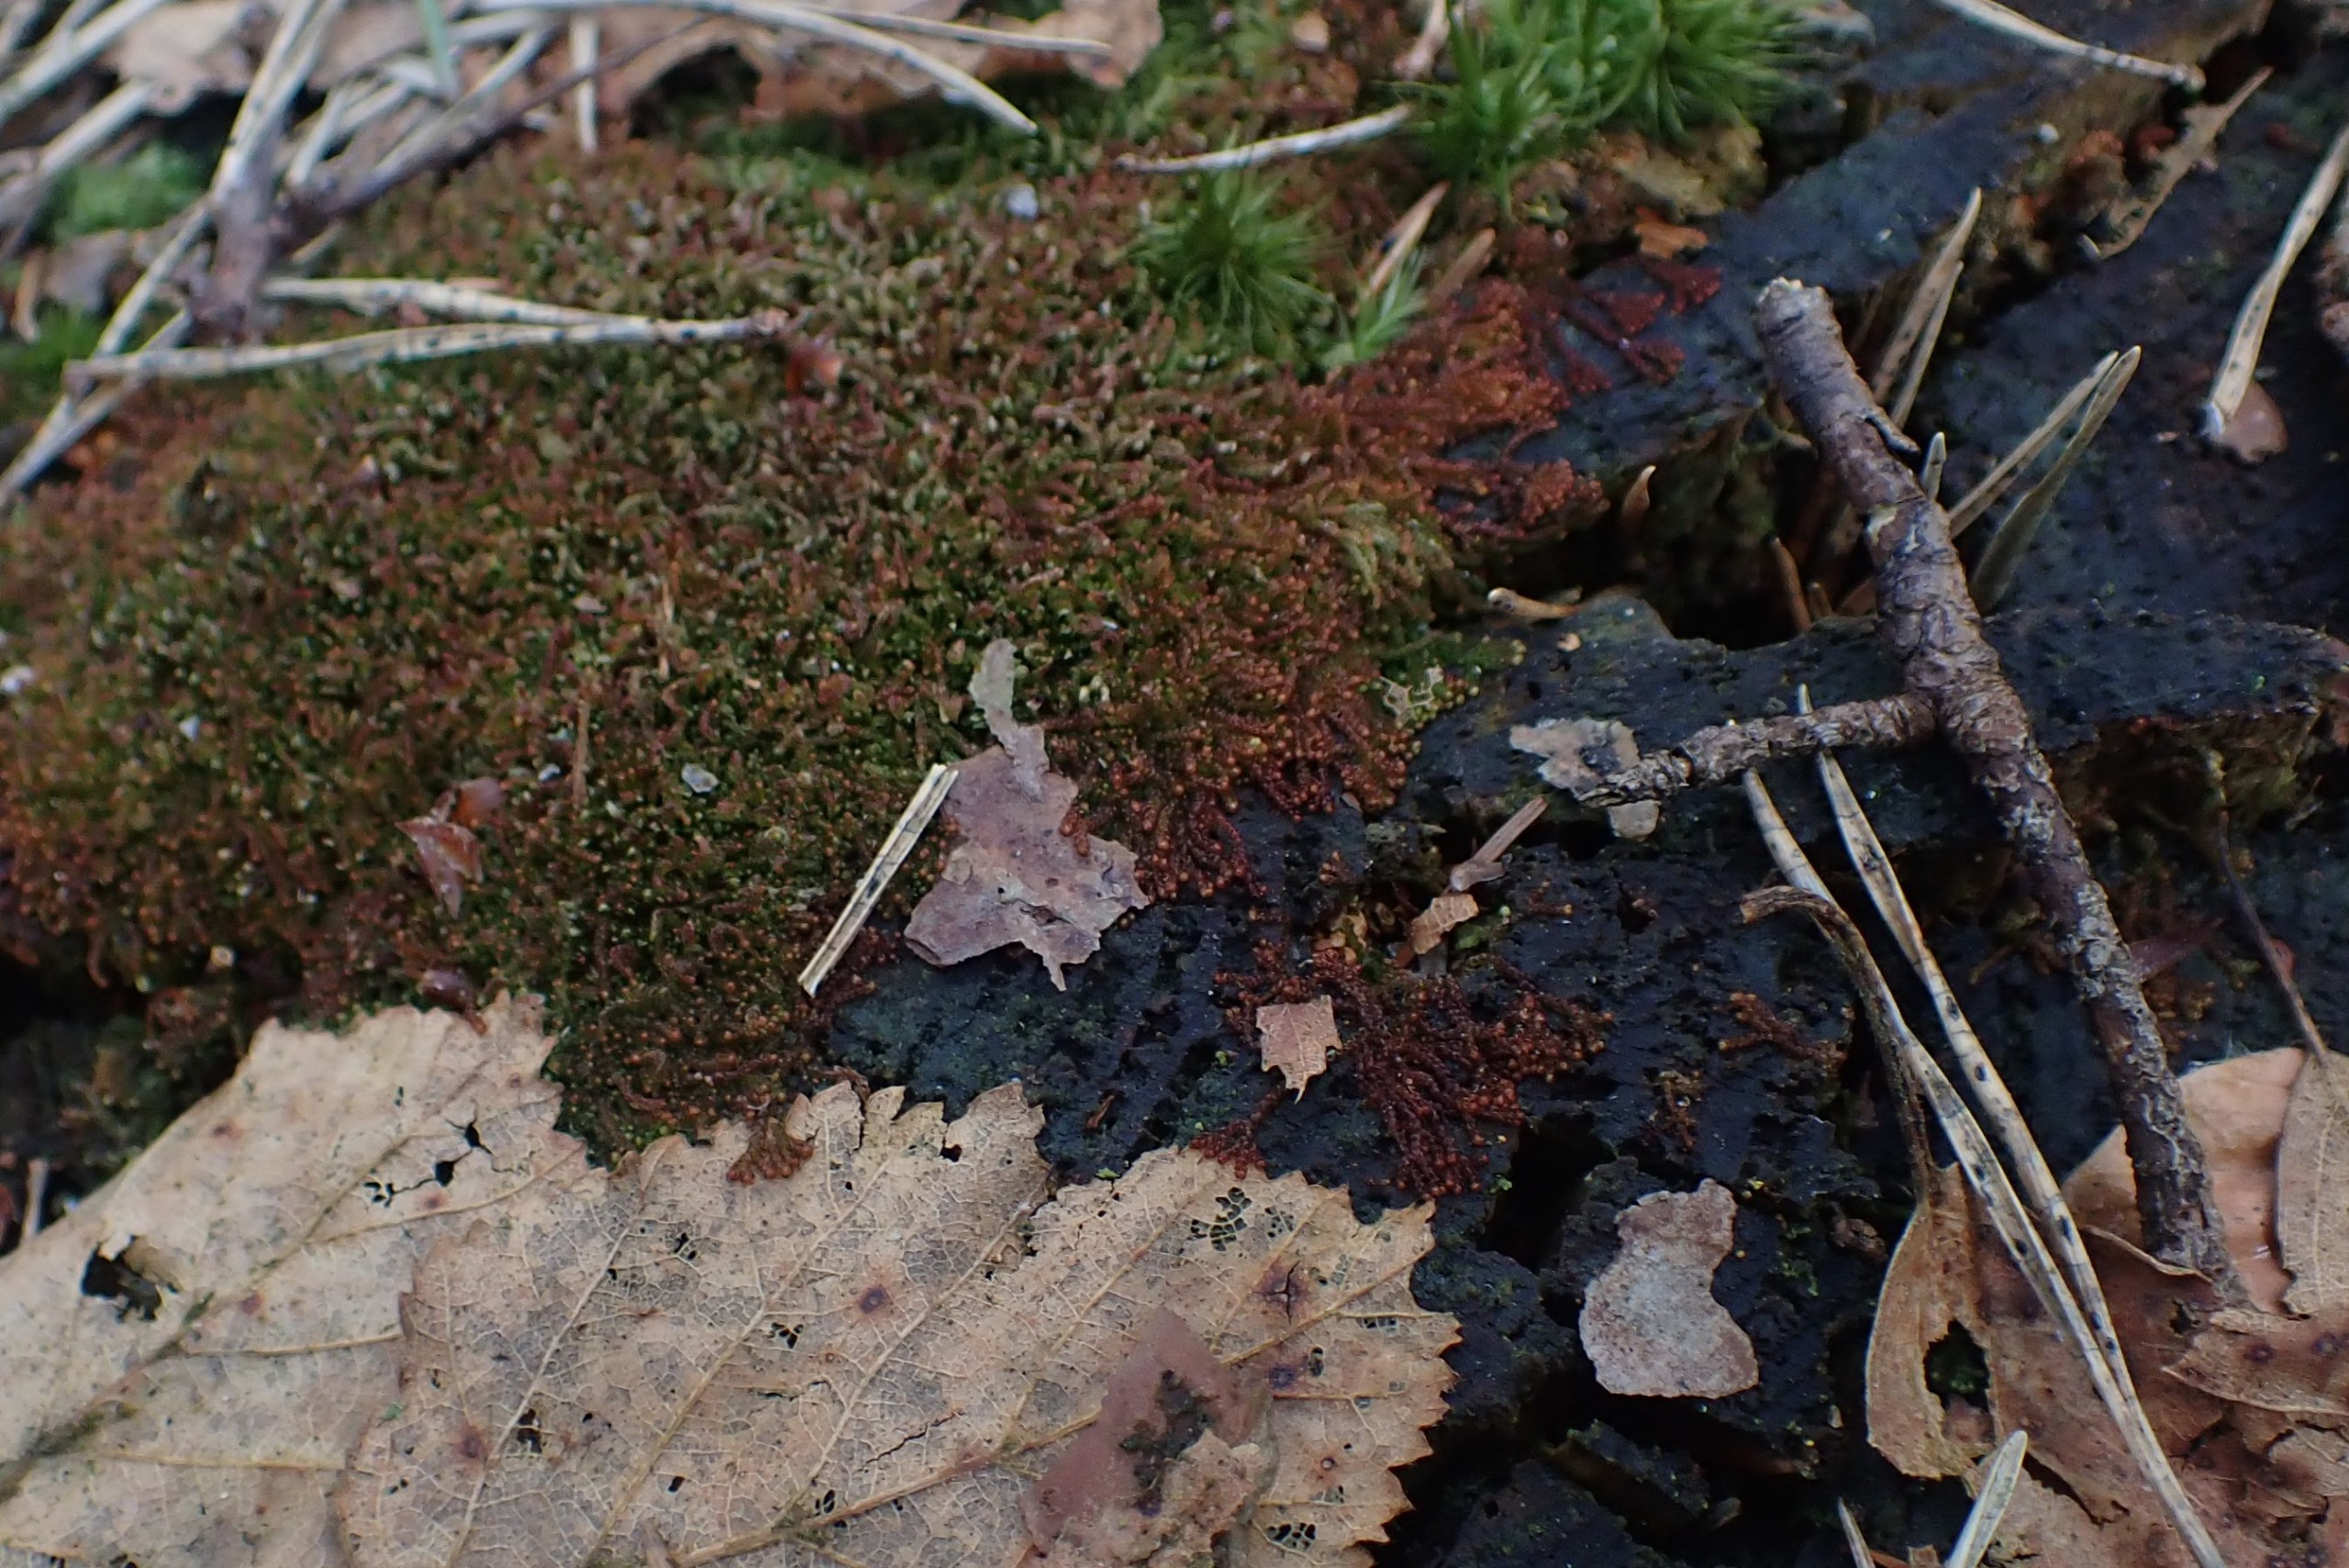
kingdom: Plantae
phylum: Marchantiophyta
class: Jungermanniopsida
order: Jungermanniales
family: Cephaloziaceae
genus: Nowellia
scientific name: Nowellia curvifolia
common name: Krumbladet stødmos
